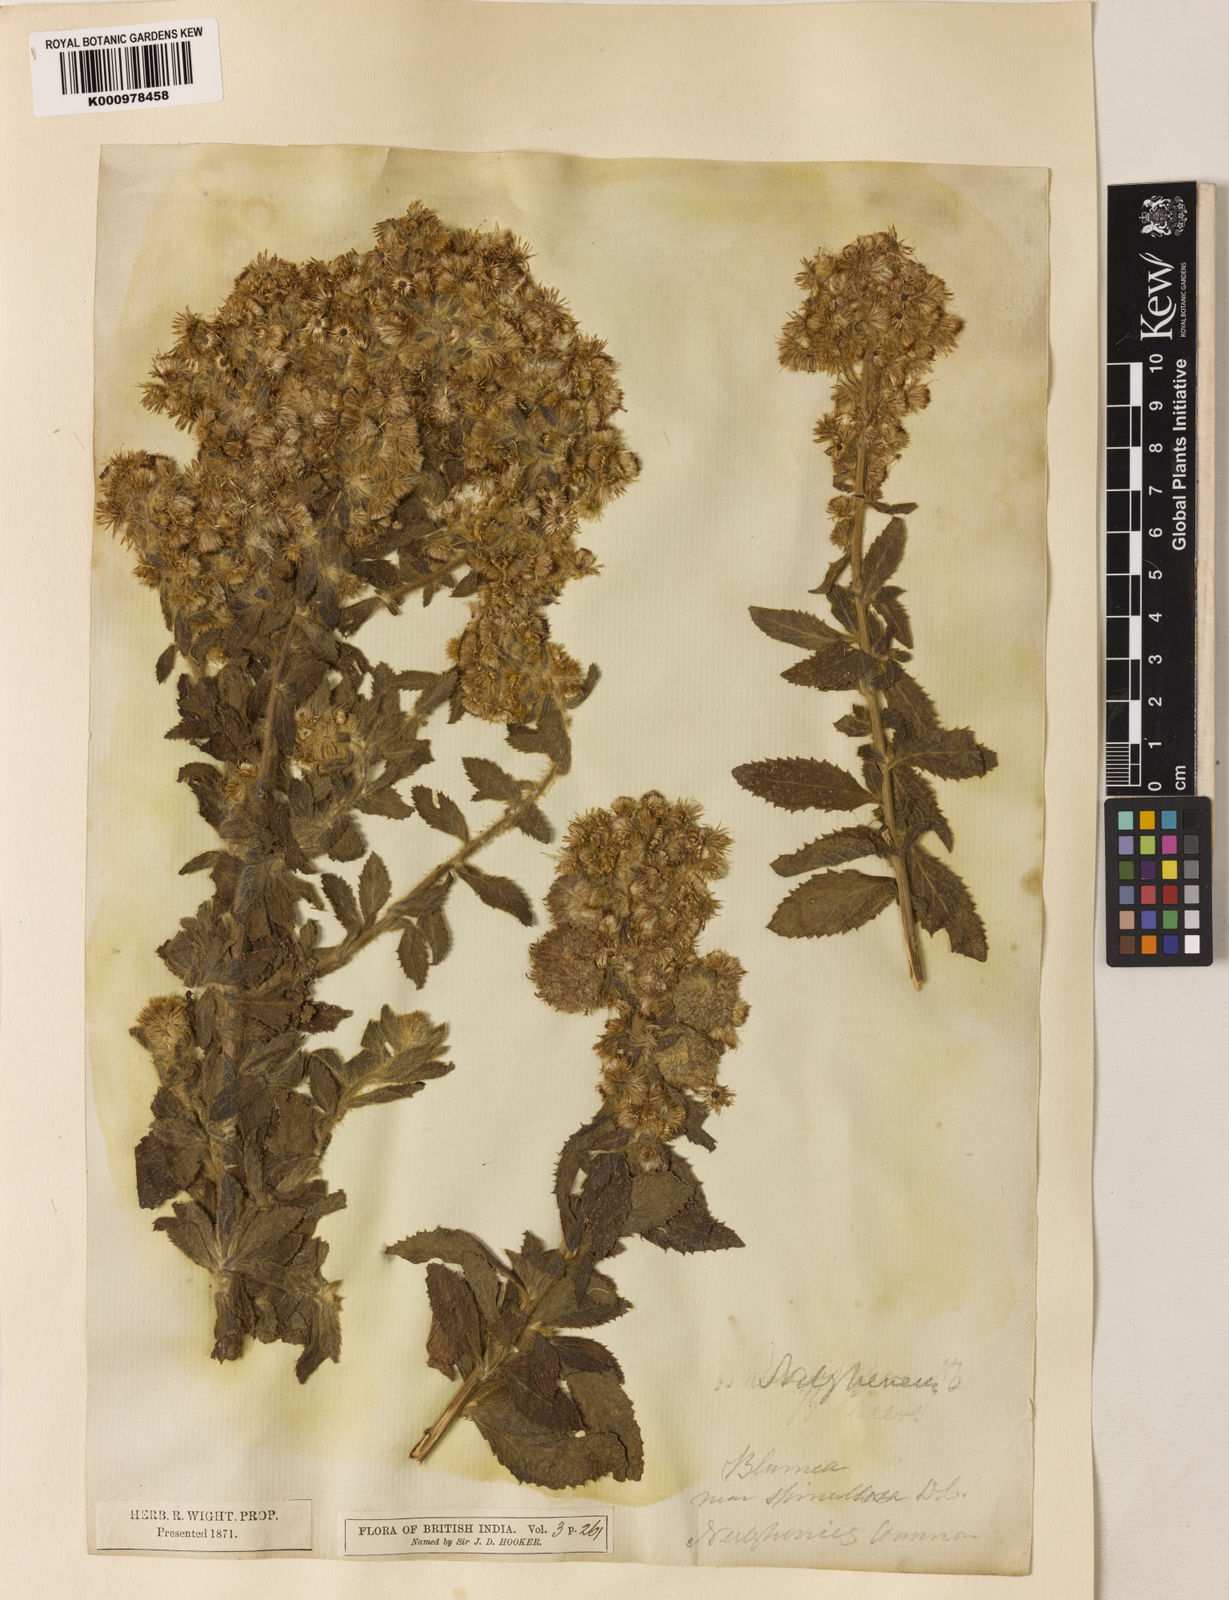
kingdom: Plantae
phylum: Tracheophyta
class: Magnoliopsida
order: Asterales
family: Asteraceae
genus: Blumea
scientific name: Blumea axillaris
